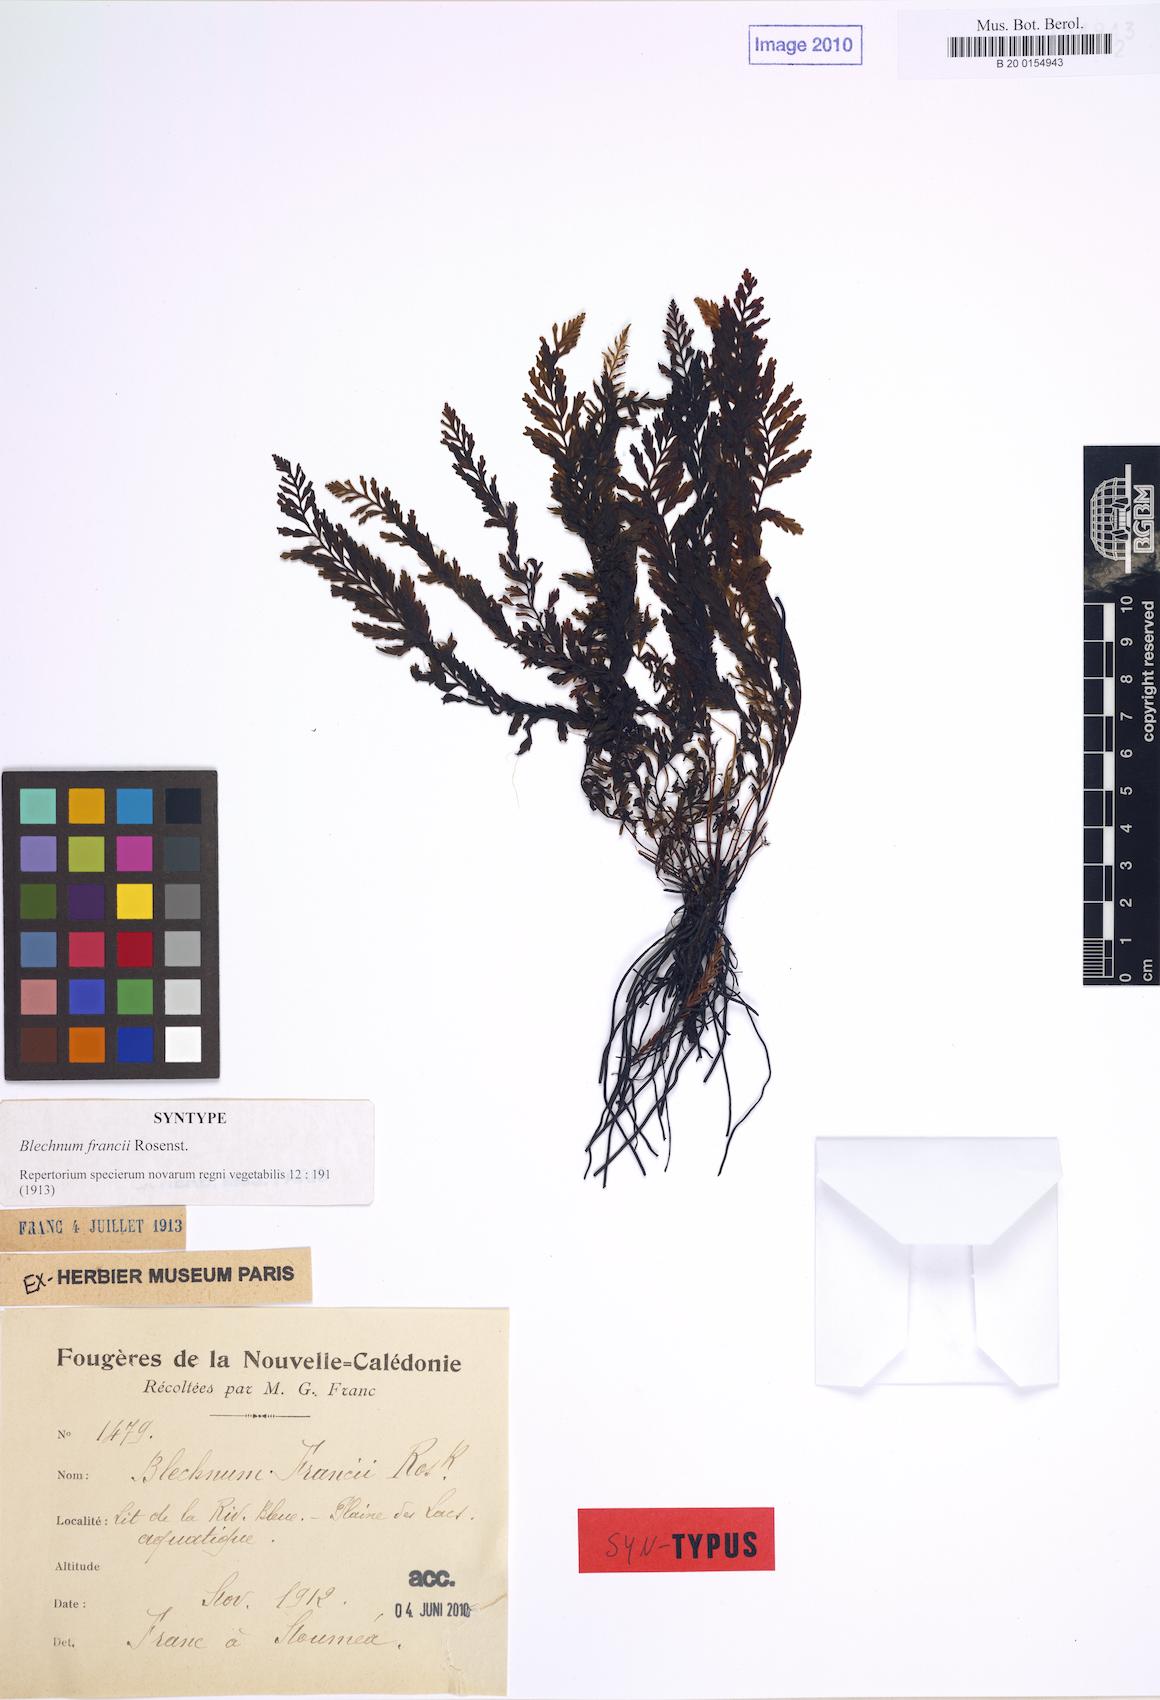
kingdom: Plantae
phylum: Tracheophyta
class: Polypodiopsida
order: Polypodiales
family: Blechnaceae
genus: Oceaniopteris
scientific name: Oceaniopteris francii
